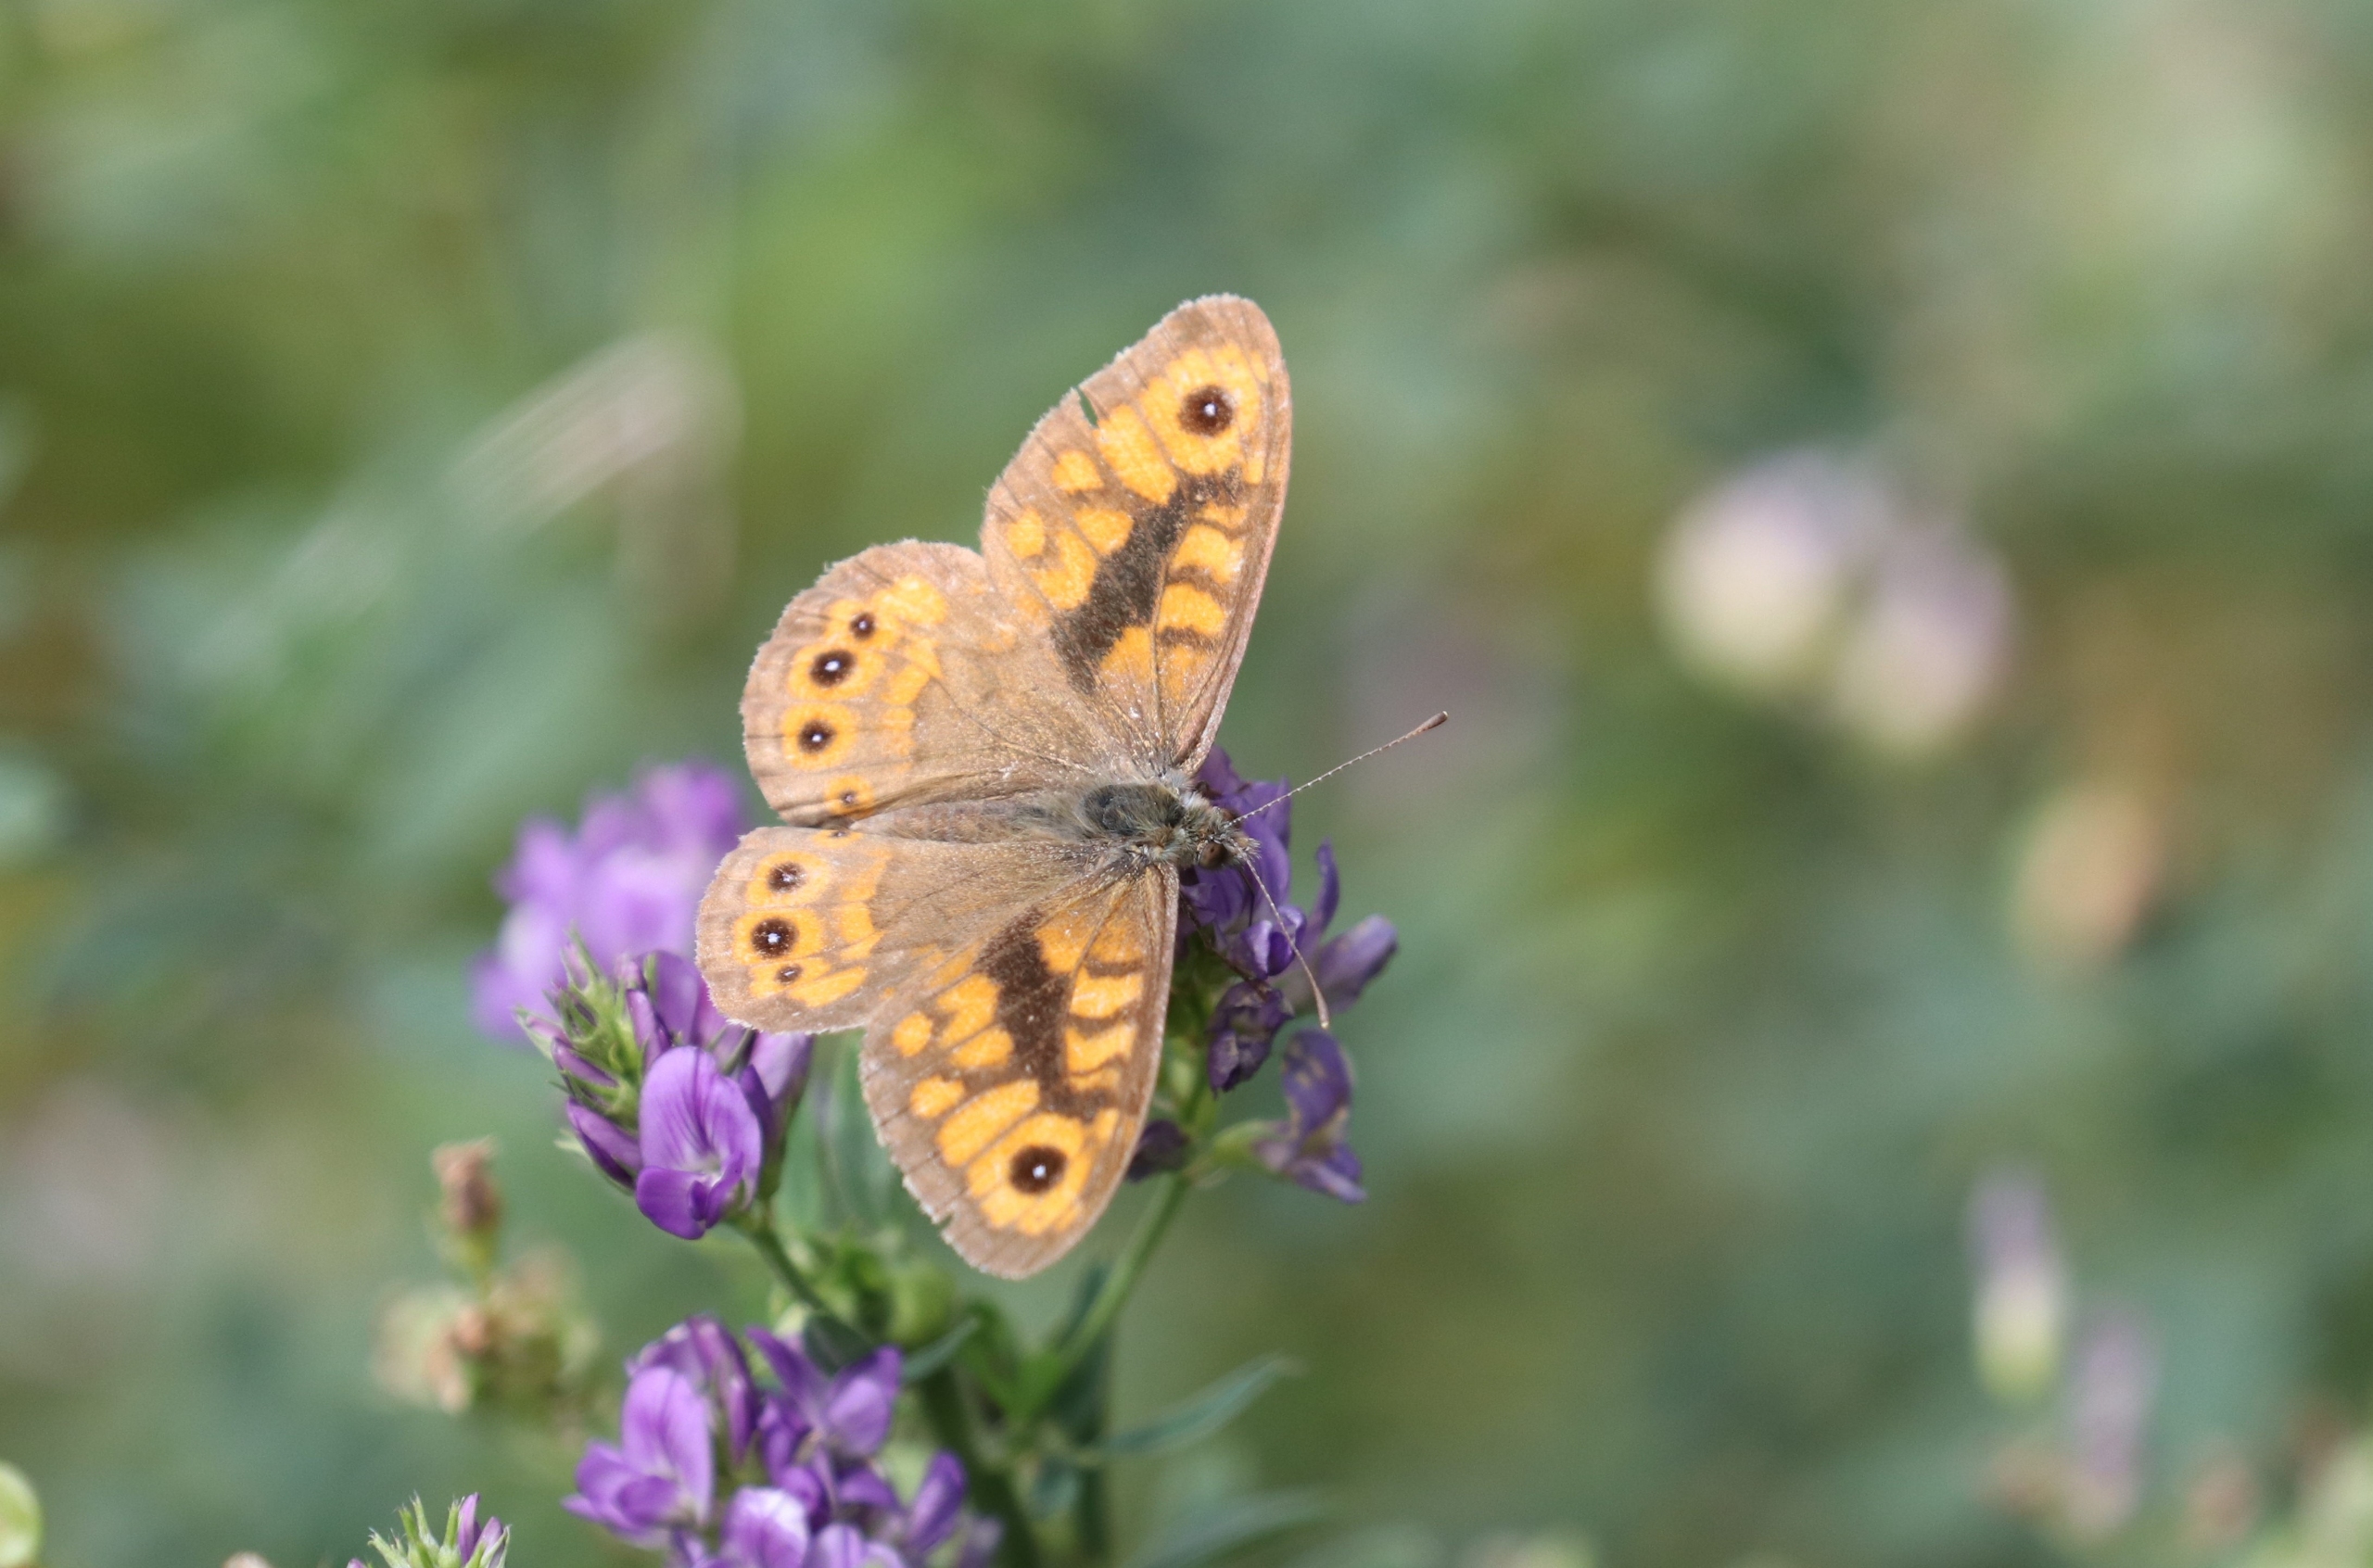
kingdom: Animalia
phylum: Arthropoda
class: Insecta
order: Lepidoptera
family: Nymphalidae
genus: Pararge
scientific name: Pararge Lasiommata megera
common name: Vejrandøje
